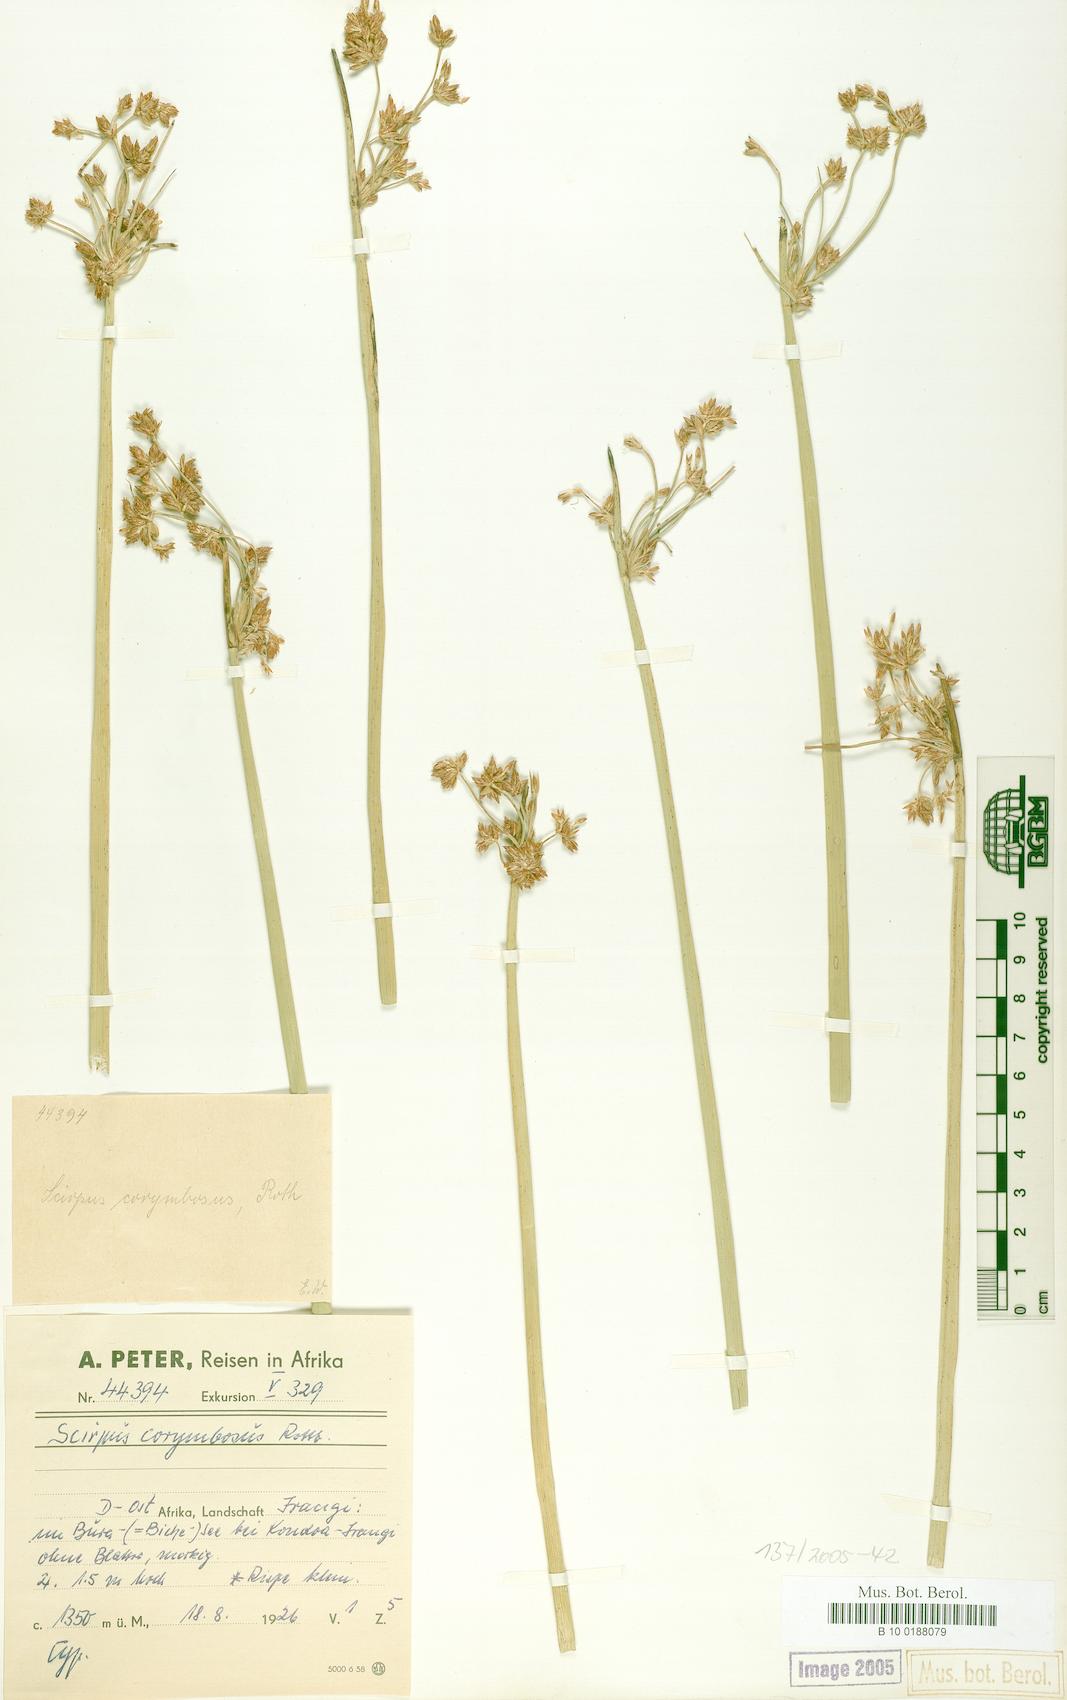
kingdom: Plantae
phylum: Tracheophyta
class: Liliopsida
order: Poales
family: Cyperaceae
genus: Schoenoplectiella
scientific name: Schoenoplectiella corymbosa
